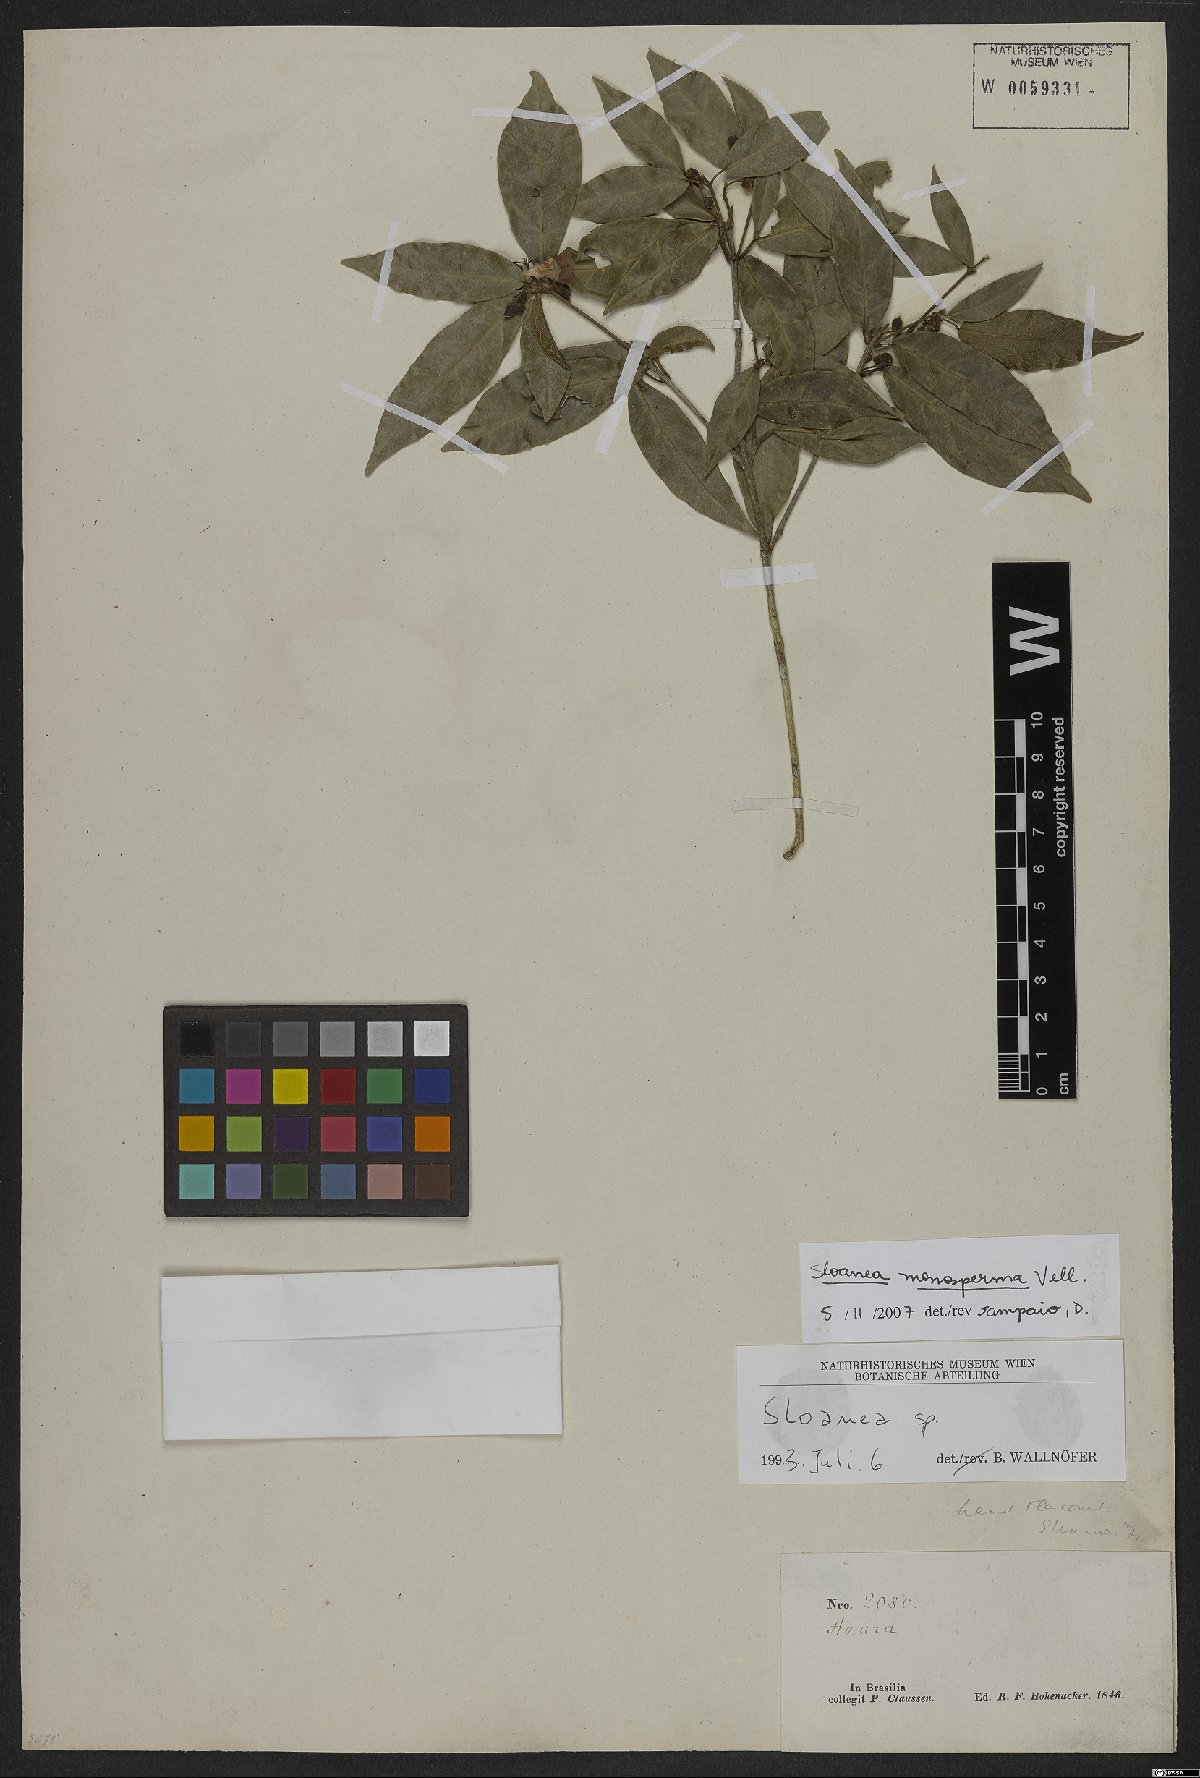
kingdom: Plantae
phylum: Tracheophyta
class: Magnoliopsida
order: Oxalidales
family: Elaeocarpaceae
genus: Sloanea
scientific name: Sloanea hirsuta
